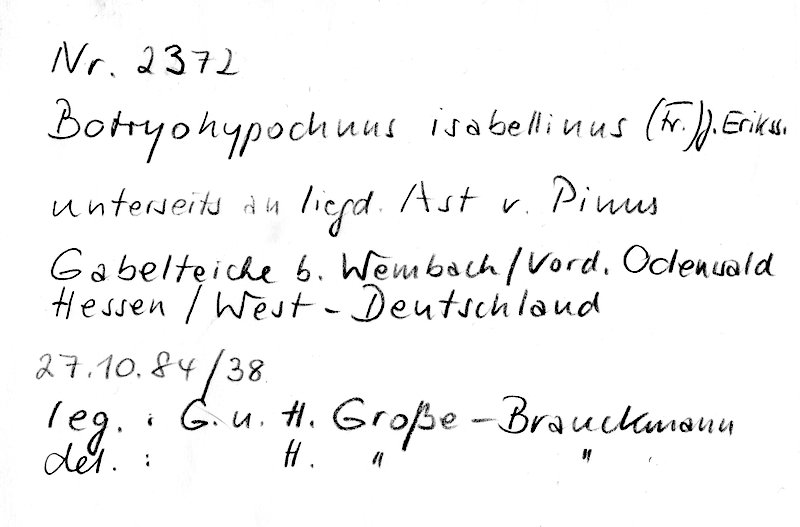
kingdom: Plantae
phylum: Tracheophyta
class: Pinopsida
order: Pinales
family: Pinaceae
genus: Pinus
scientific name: Pinus
